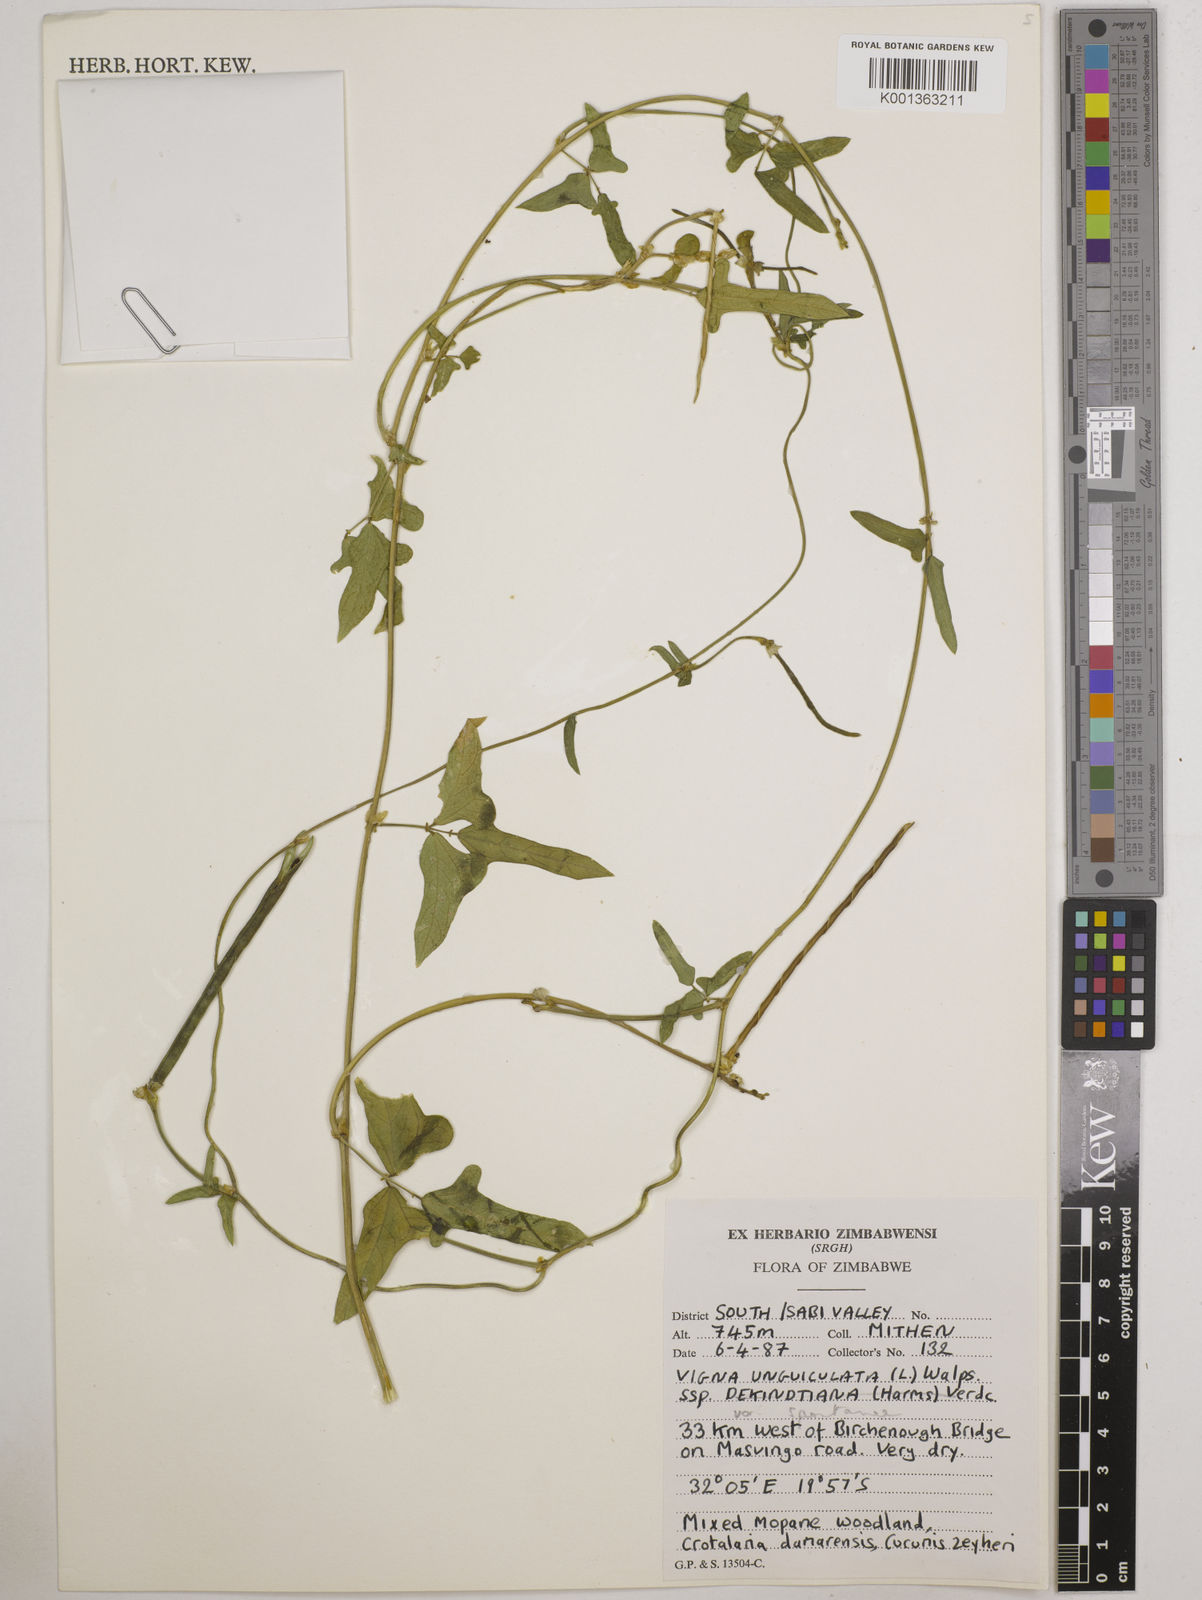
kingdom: Plantae
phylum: Tracheophyta
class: Magnoliopsida
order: Fabales
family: Fabaceae
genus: Vigna
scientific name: Vigna unguiculata
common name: Cowpea
